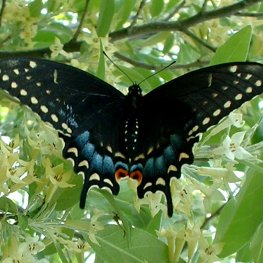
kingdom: Animalia
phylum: Arthropoda
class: Insecta
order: Lepidoptera
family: Papilionidae
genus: Papilio
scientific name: Papilio polyxenes
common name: Black Swallowtail
